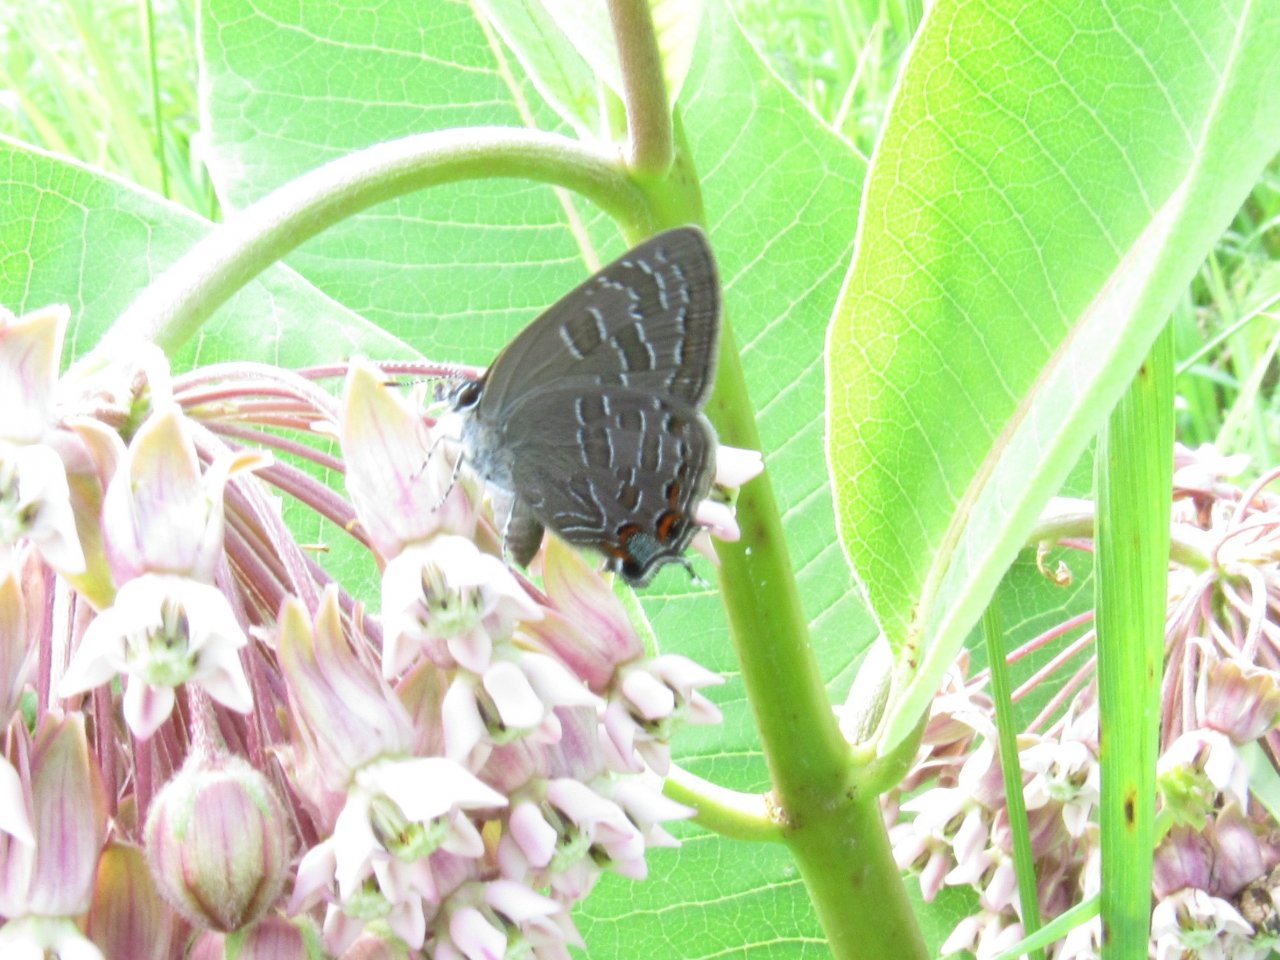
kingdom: Animalia
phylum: Arthropoda
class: Insecta
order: Lepidoptera
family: Lycaenidae
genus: Satyrium
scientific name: Satyrium liparops
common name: Striped Hairstreak
